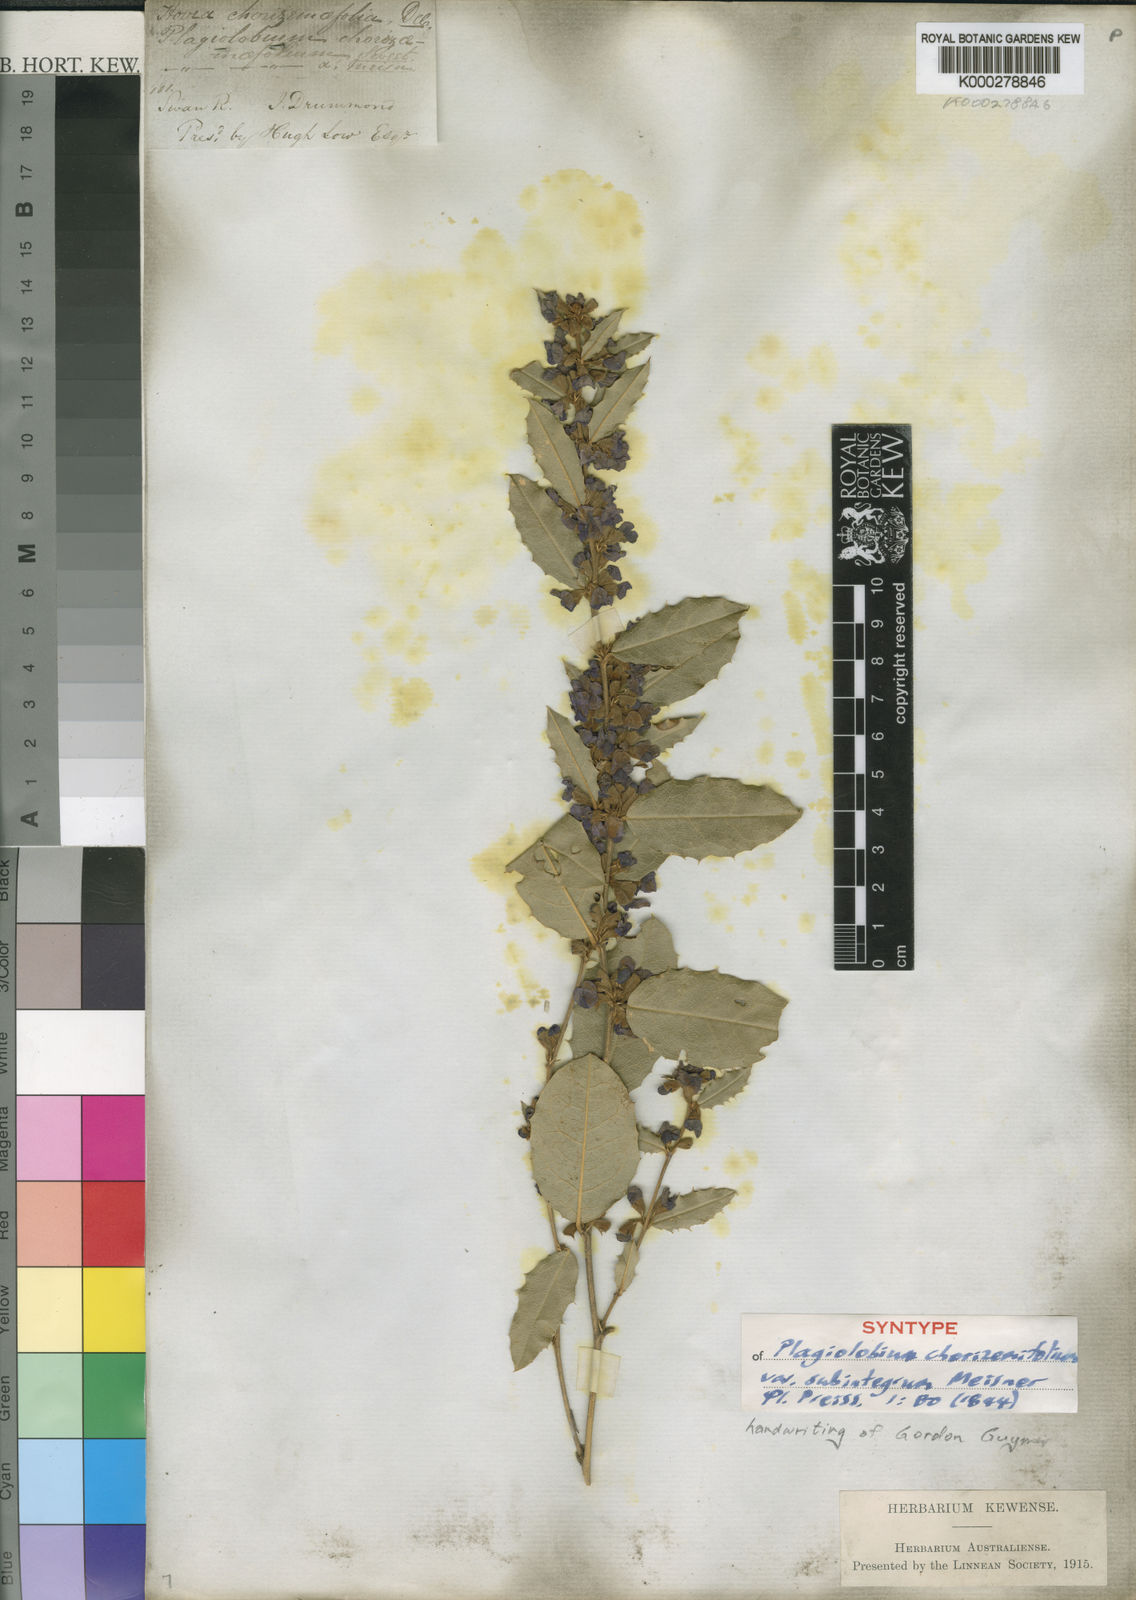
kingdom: Plantae
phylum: Tracheophyta
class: Magnoliopsida
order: Fabales
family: Fabaceae
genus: Hovea
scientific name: Hovea chorizemifolia
